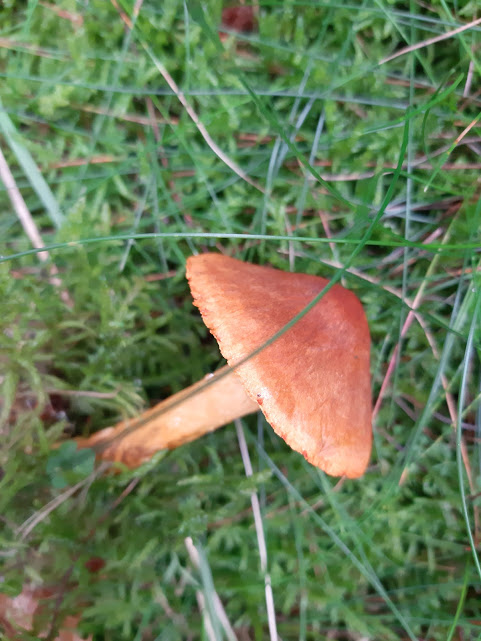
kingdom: Fungi
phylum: Basidiomycota
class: Agaricomycetes
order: Agaricales
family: Cortinariaceae
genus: Cortinarius
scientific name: Cortinarius malicorius
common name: grønkødet slørhat
